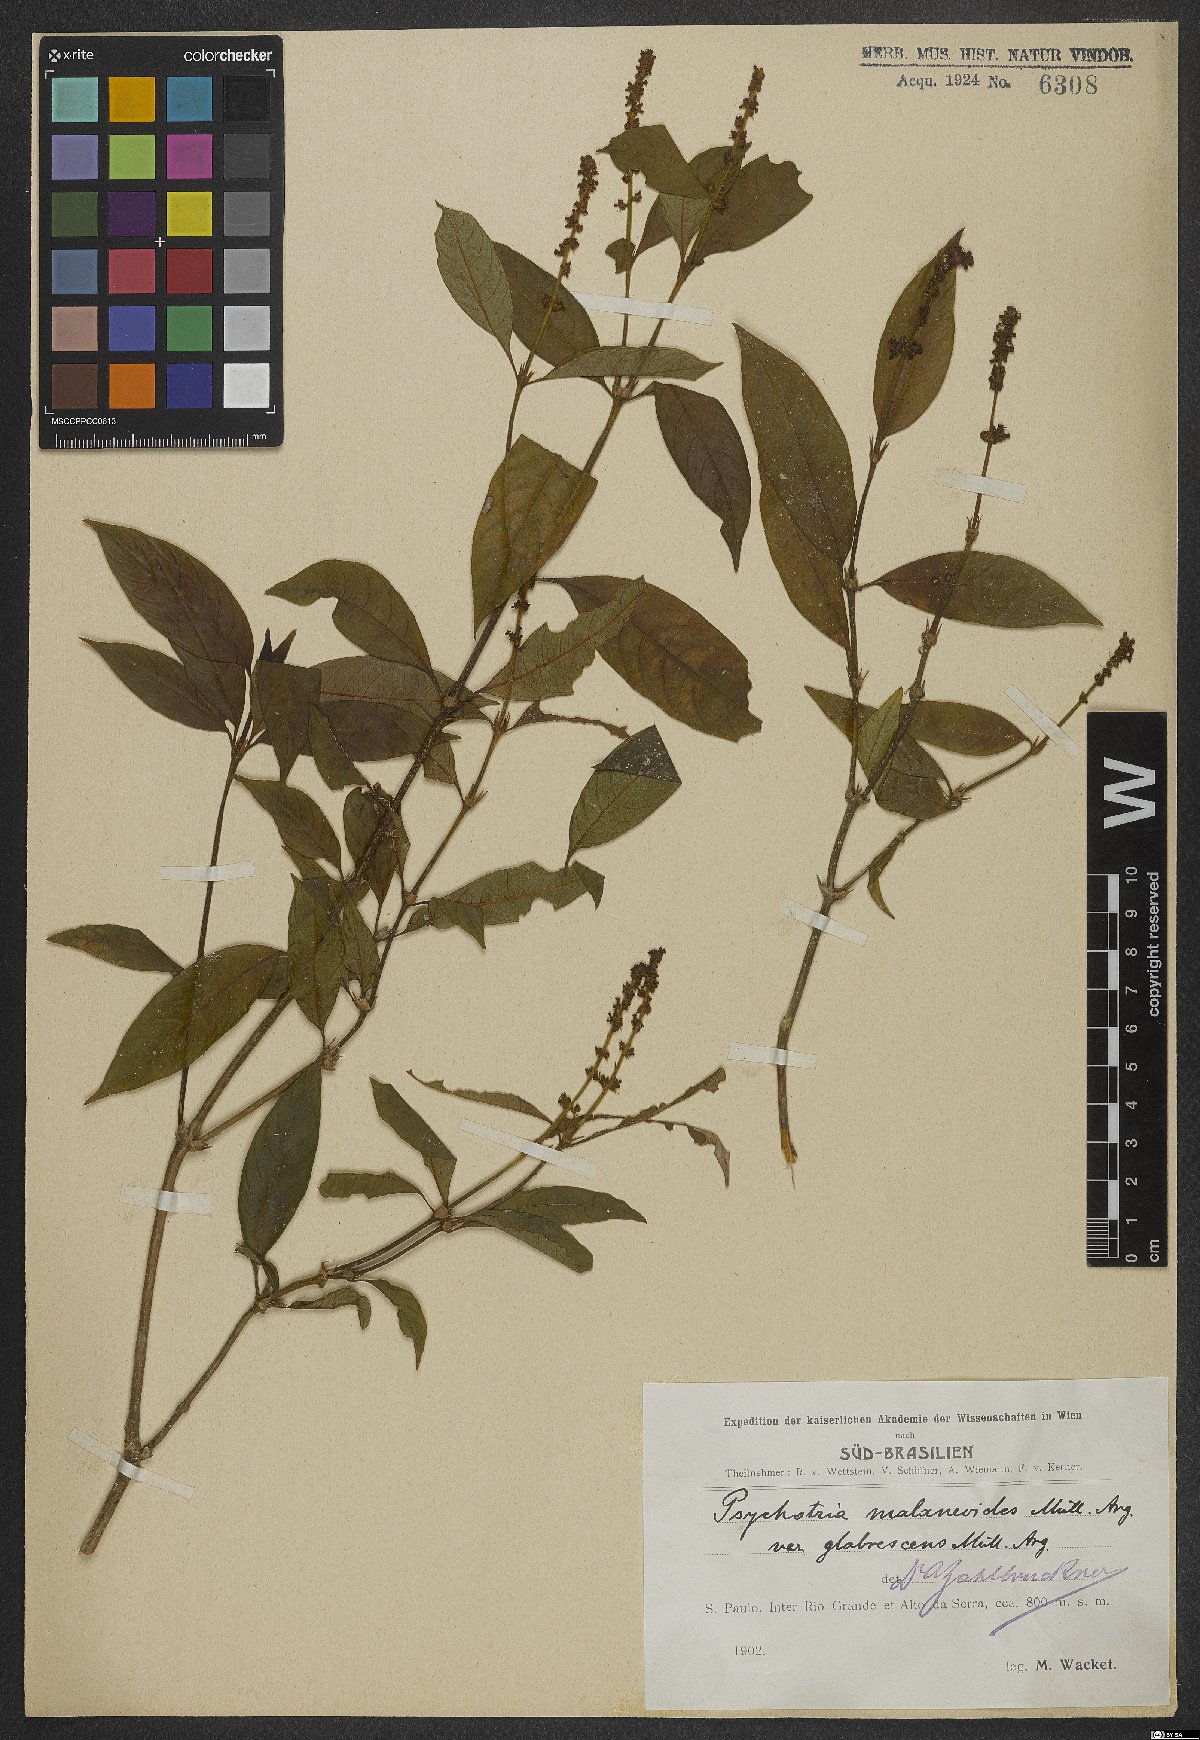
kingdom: Plantae
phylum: Tracheophyta
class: Magnoliopsida
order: Gentianales
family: Rubiaceae
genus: Palicourea
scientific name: Palicourea malaneoides
